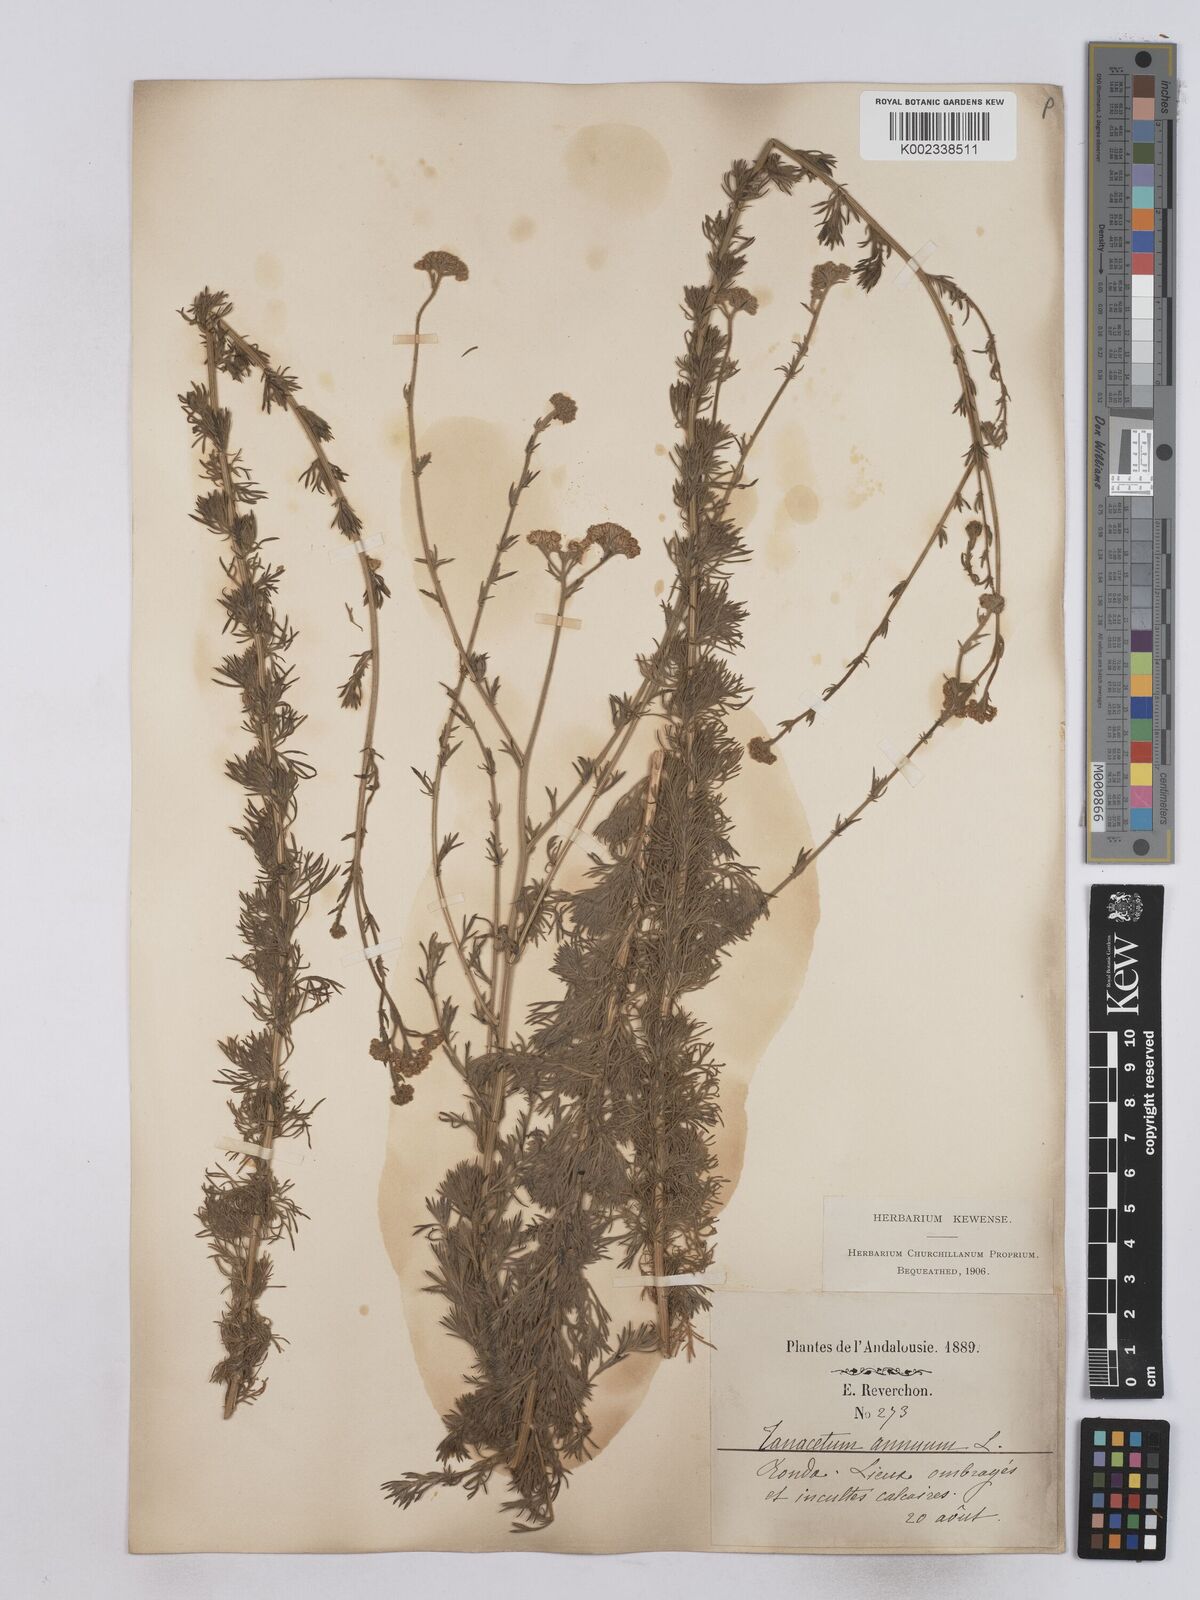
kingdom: Plantae
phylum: Tracheophyta
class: Magnoliopsida
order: Asterales
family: Asteraceae
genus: Vogtia
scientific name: Vogtia annua
